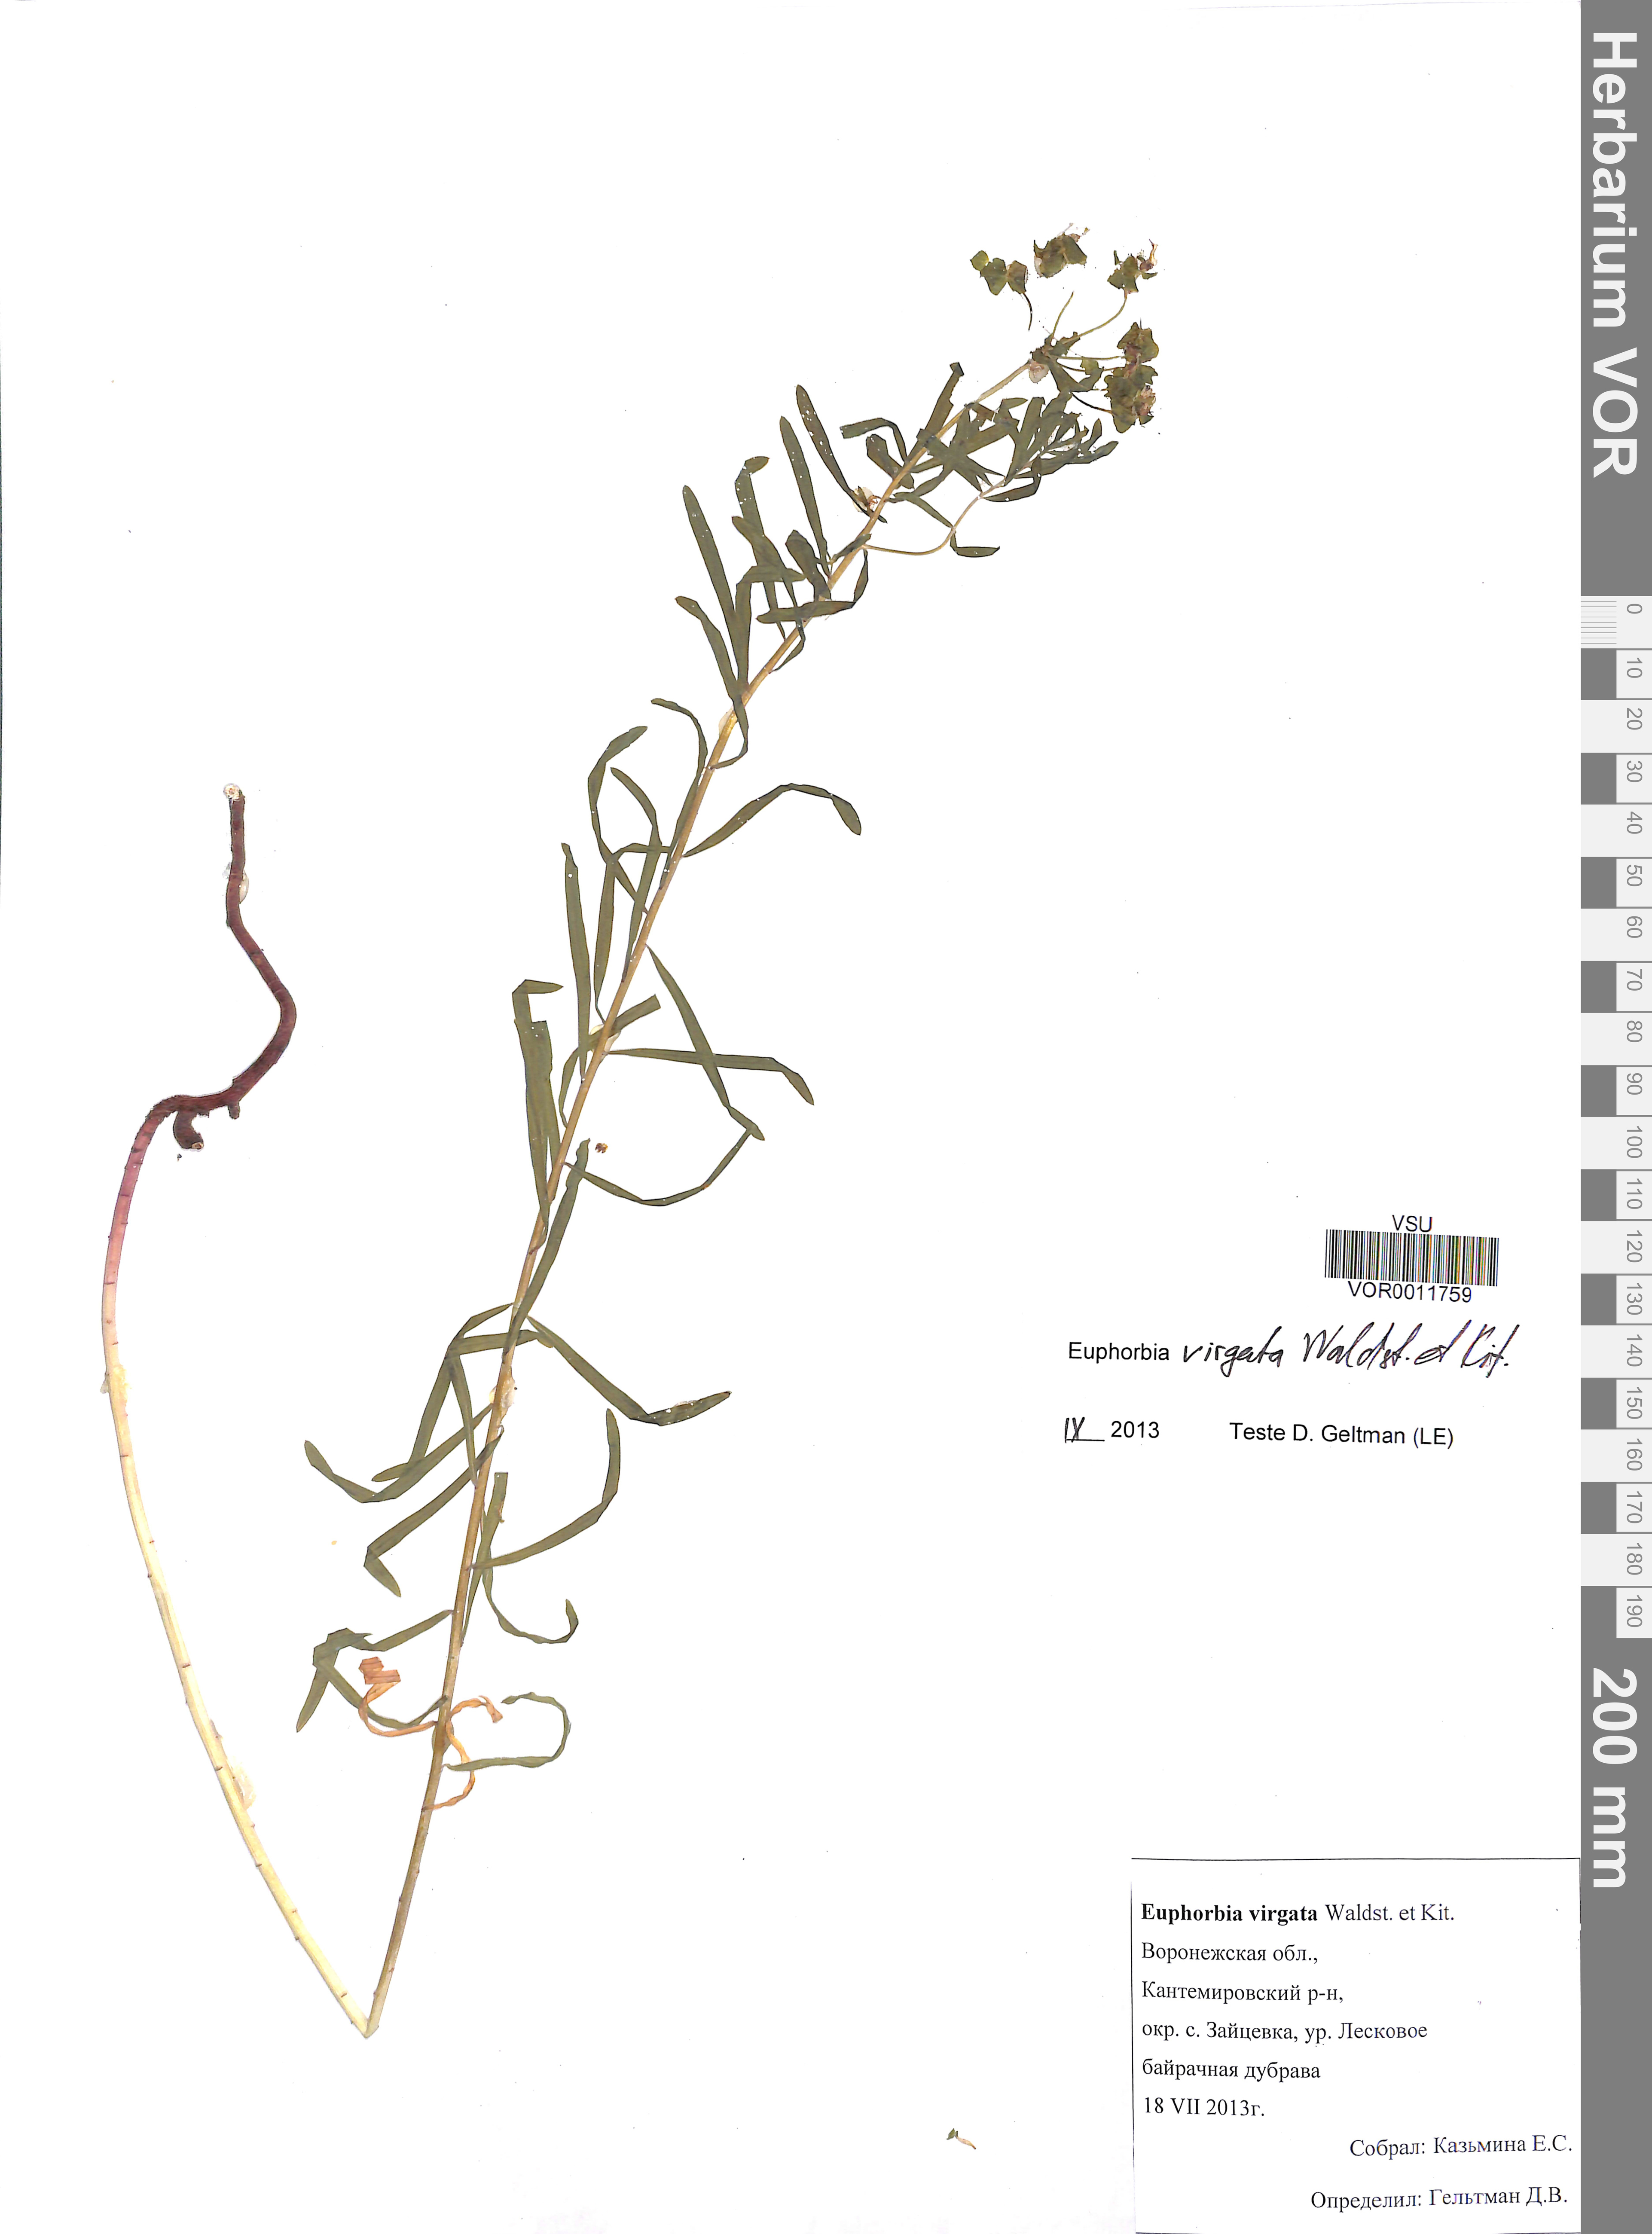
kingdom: Plantae
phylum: Tracheophyta
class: Magnoliopsida
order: Malpighiales
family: Euphorbiaceae
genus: Euphorbia
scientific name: Euphorbia virgata
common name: Leafy spurge
